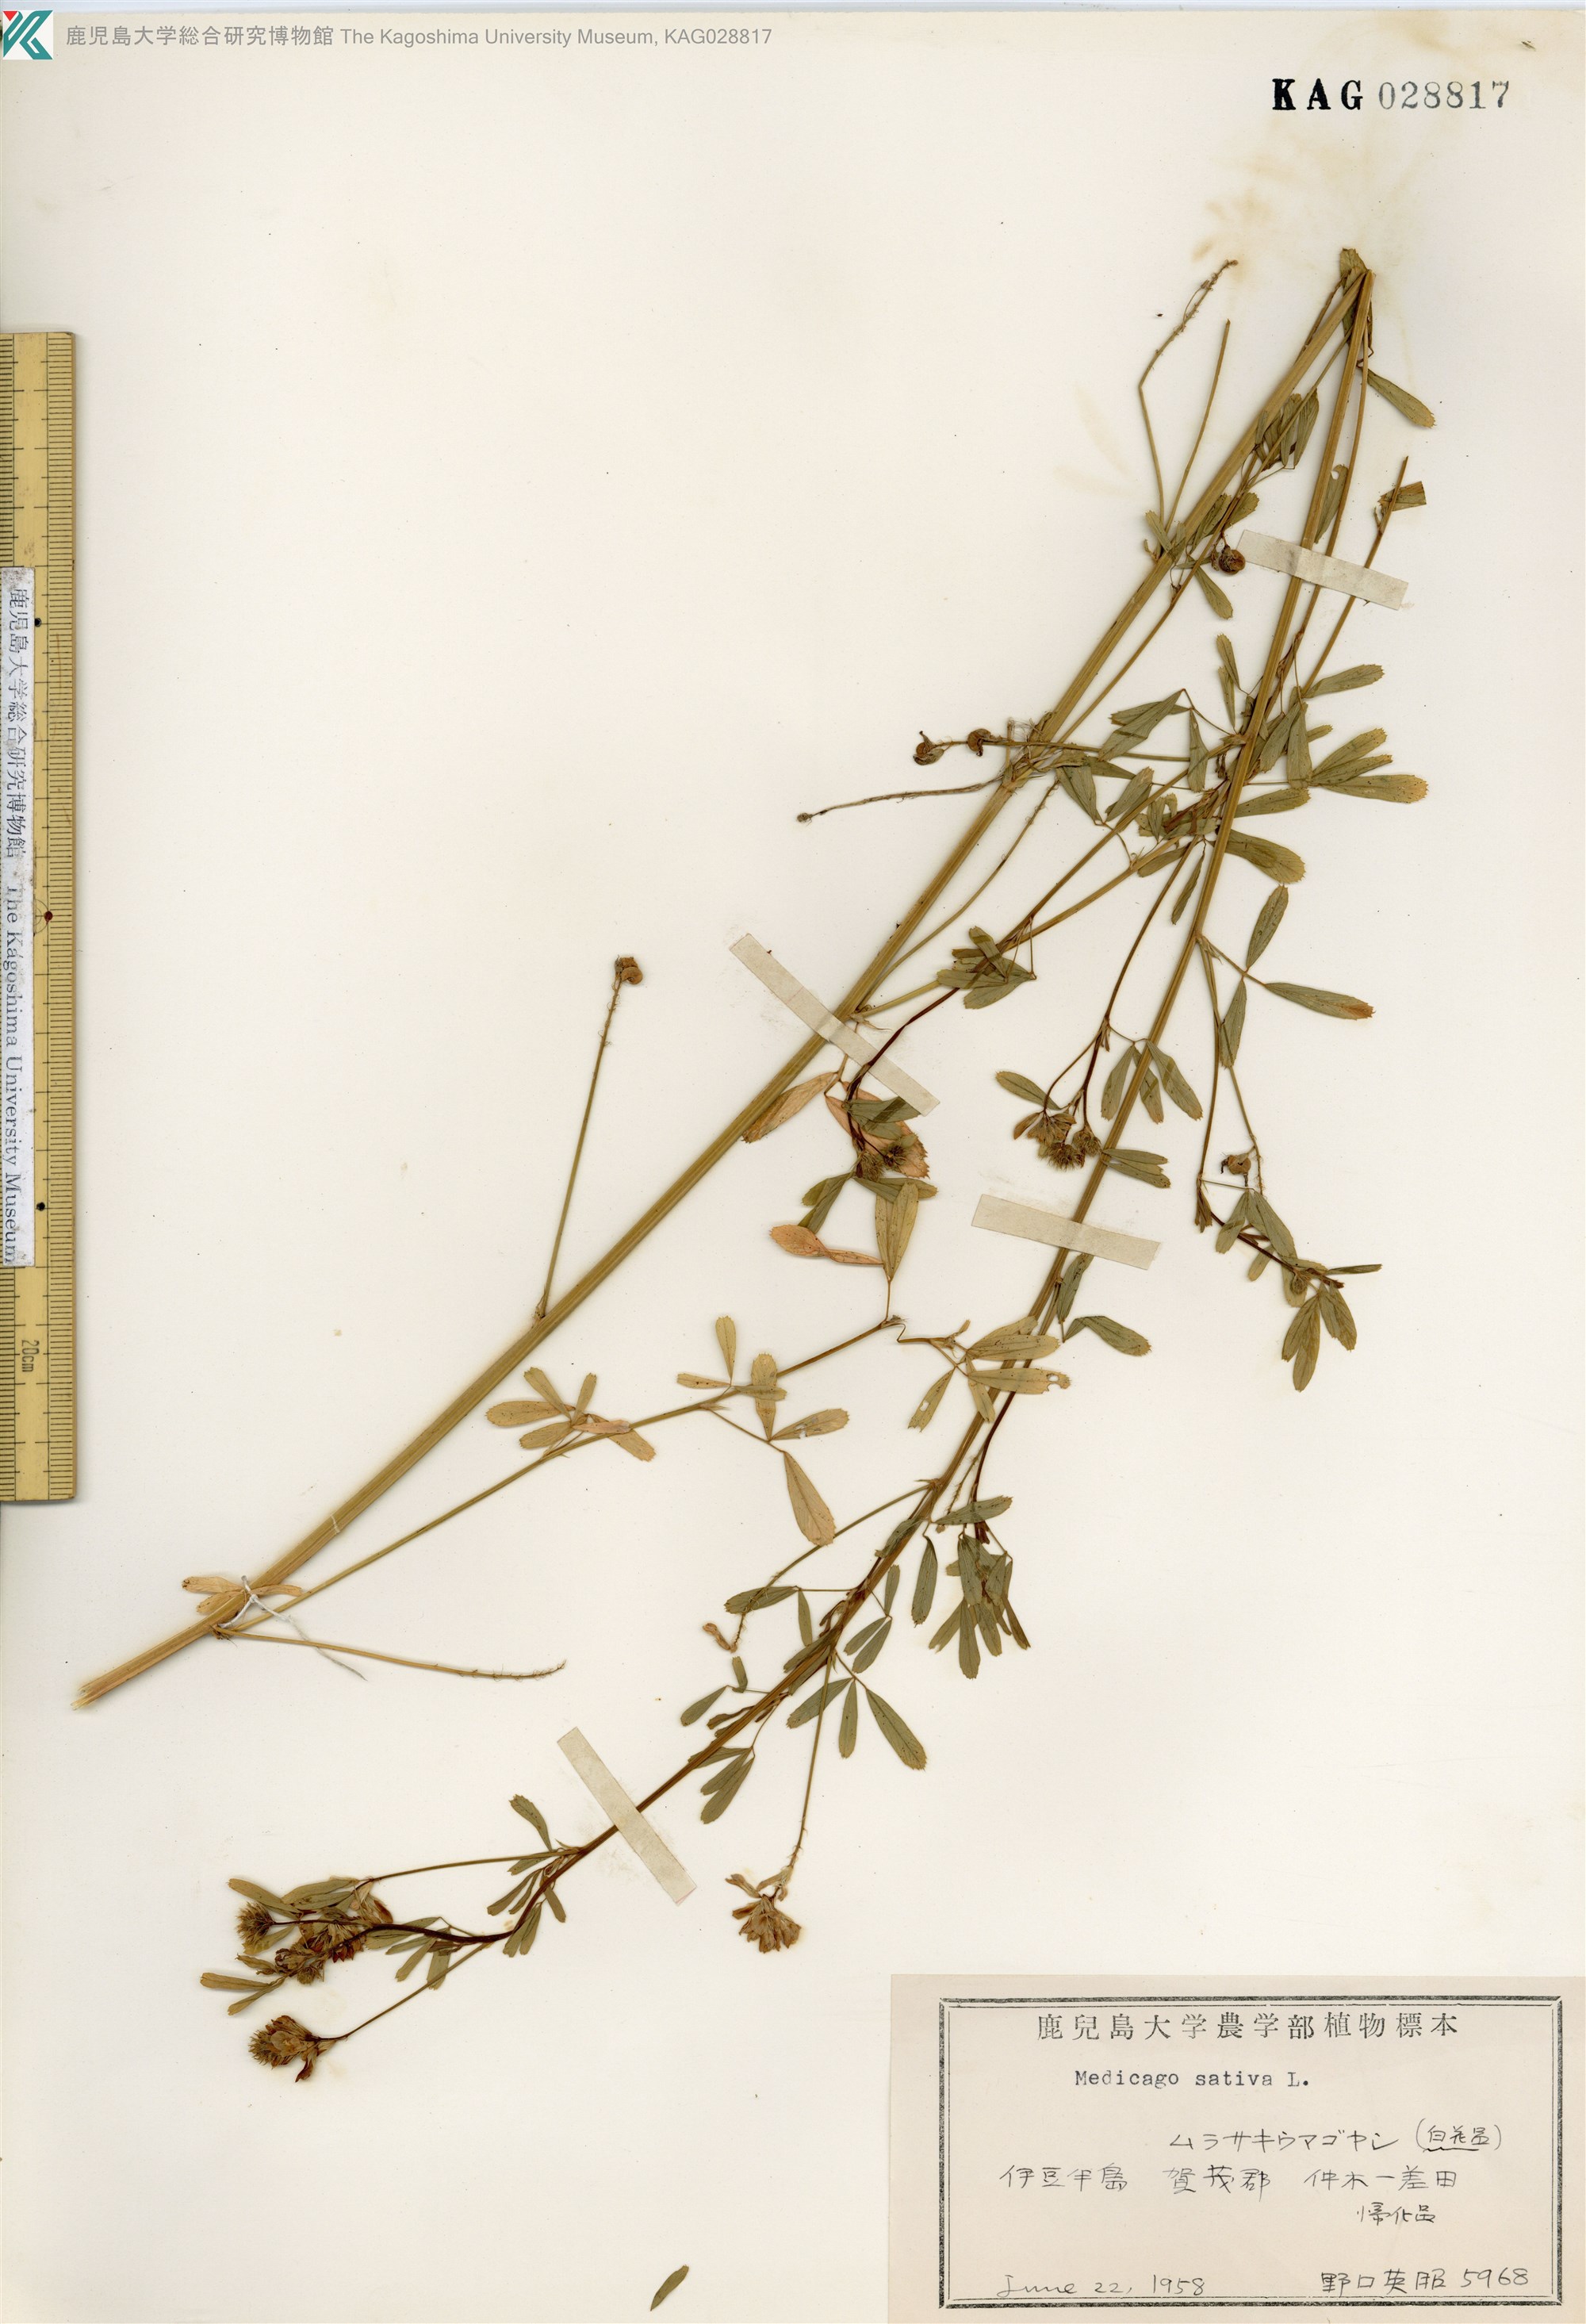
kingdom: Plantae
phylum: Tracheophyta
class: Magnoliopsida
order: Fabales
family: Fabaceae
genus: Medicago
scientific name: Medicago sativa
